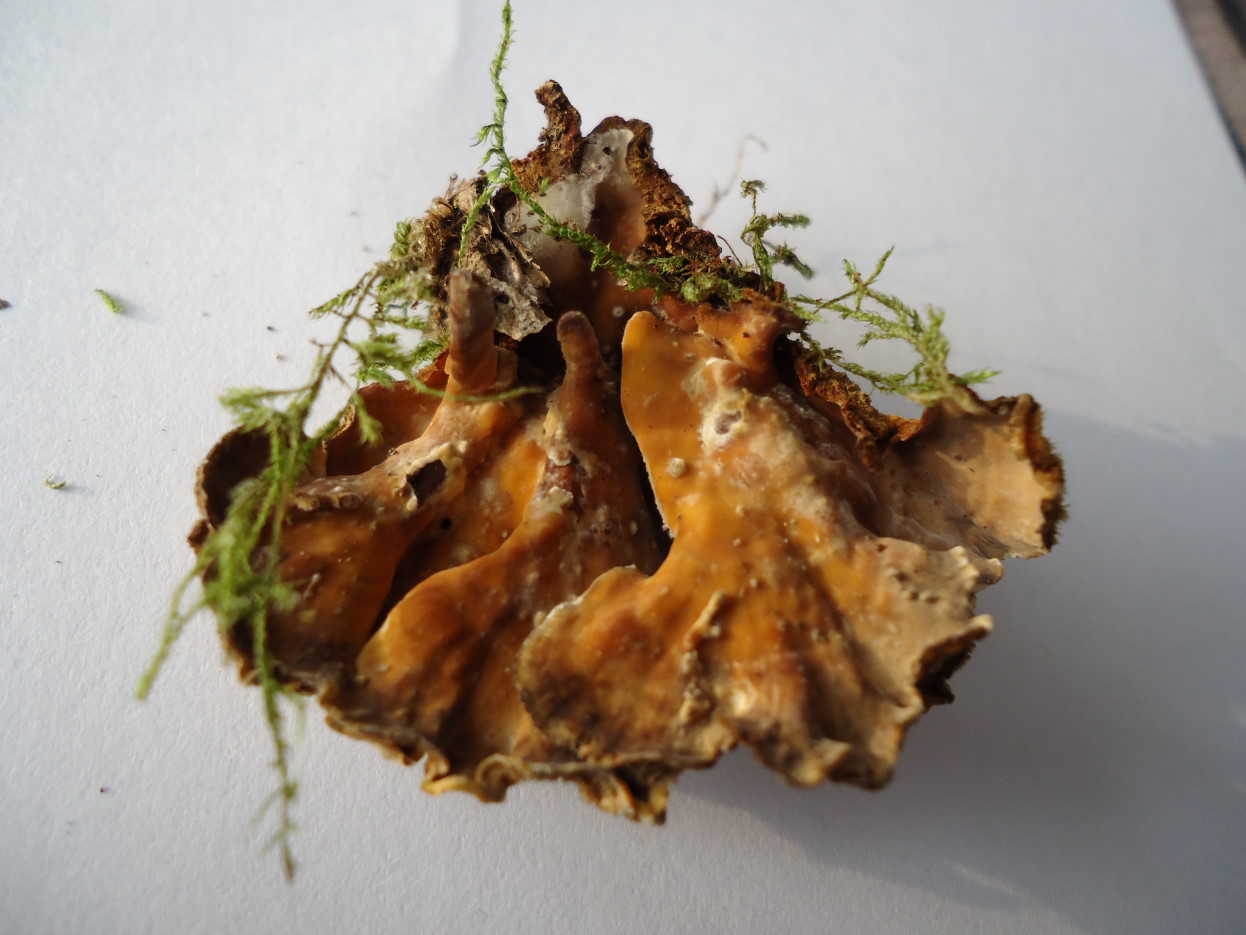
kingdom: Fungi
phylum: Basidiomycota
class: Agaricomycetes
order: Russulales
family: Stereaceae
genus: Stereum
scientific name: Stereum hirsutum
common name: håret lædersvamp
